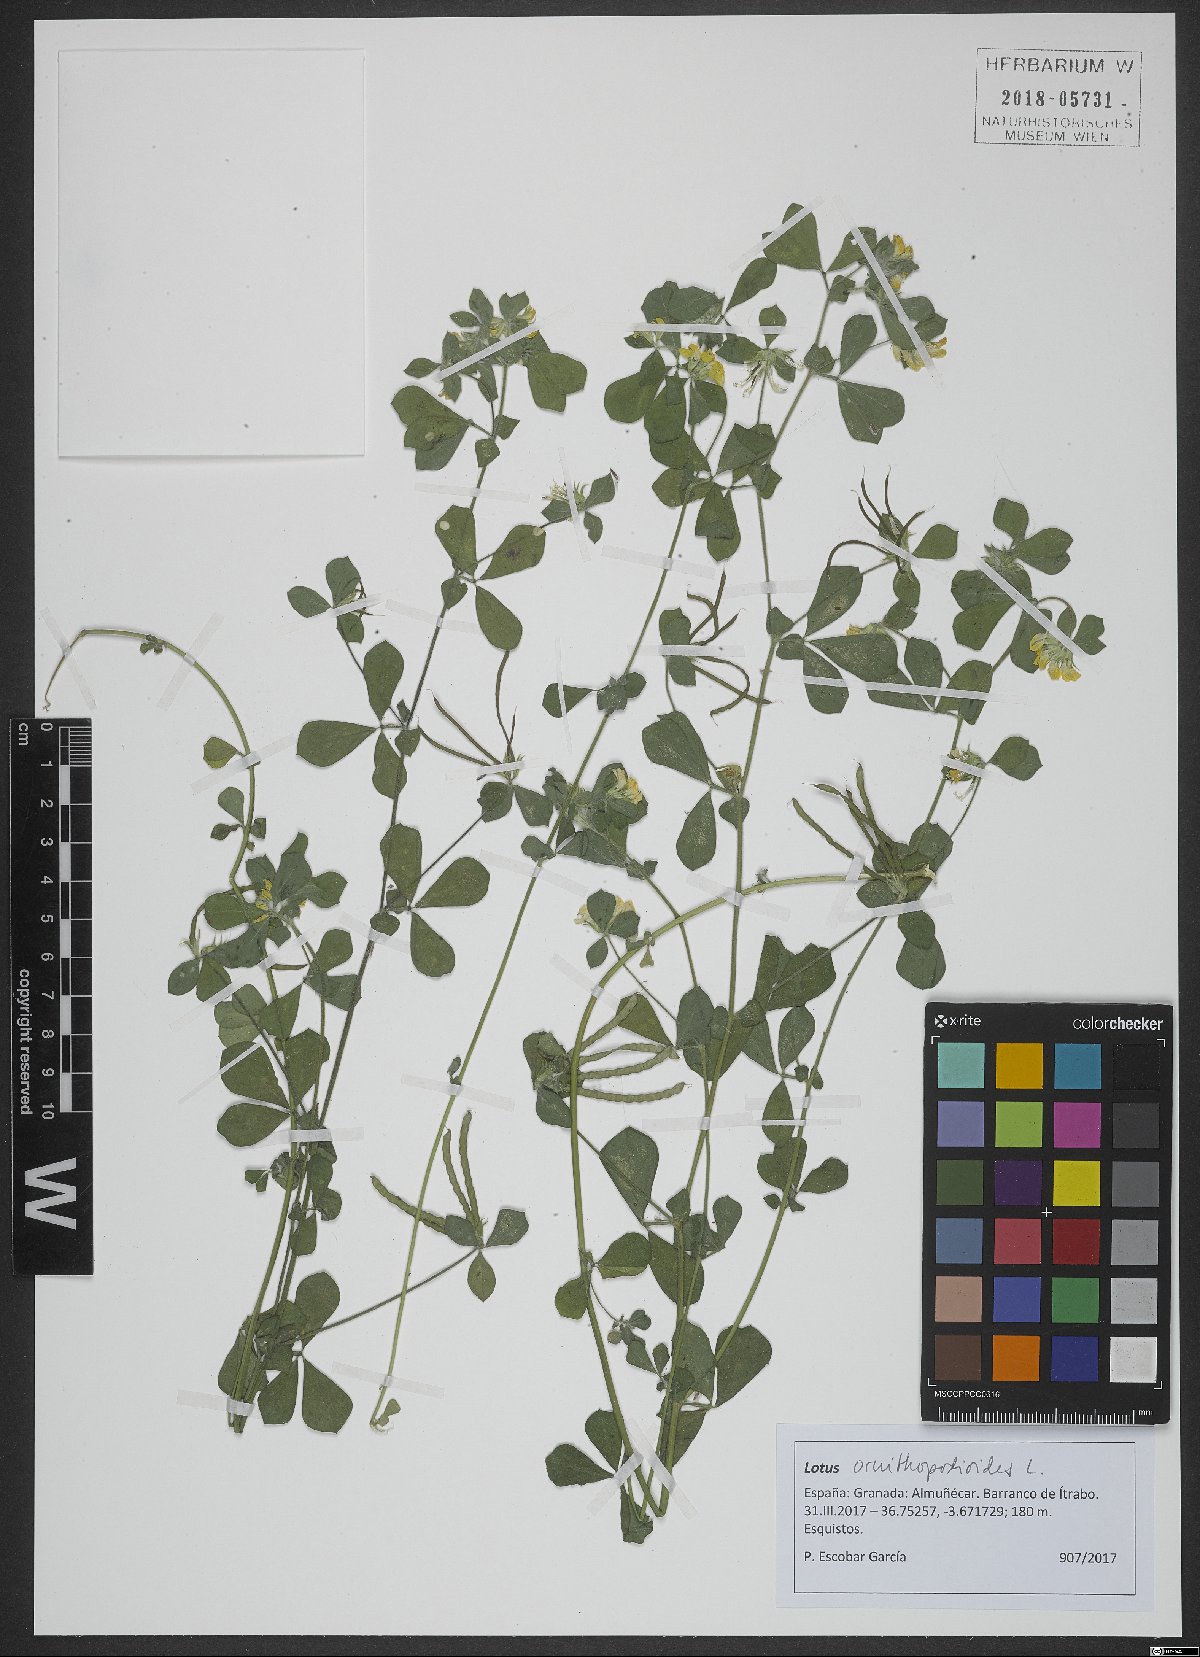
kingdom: Plantae
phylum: Tracheophyta
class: Magnoliopsida
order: Fabales
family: Fabaceae
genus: Lotus
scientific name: Lotus ornithopodioides
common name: Southern bird's-foot trefoil
